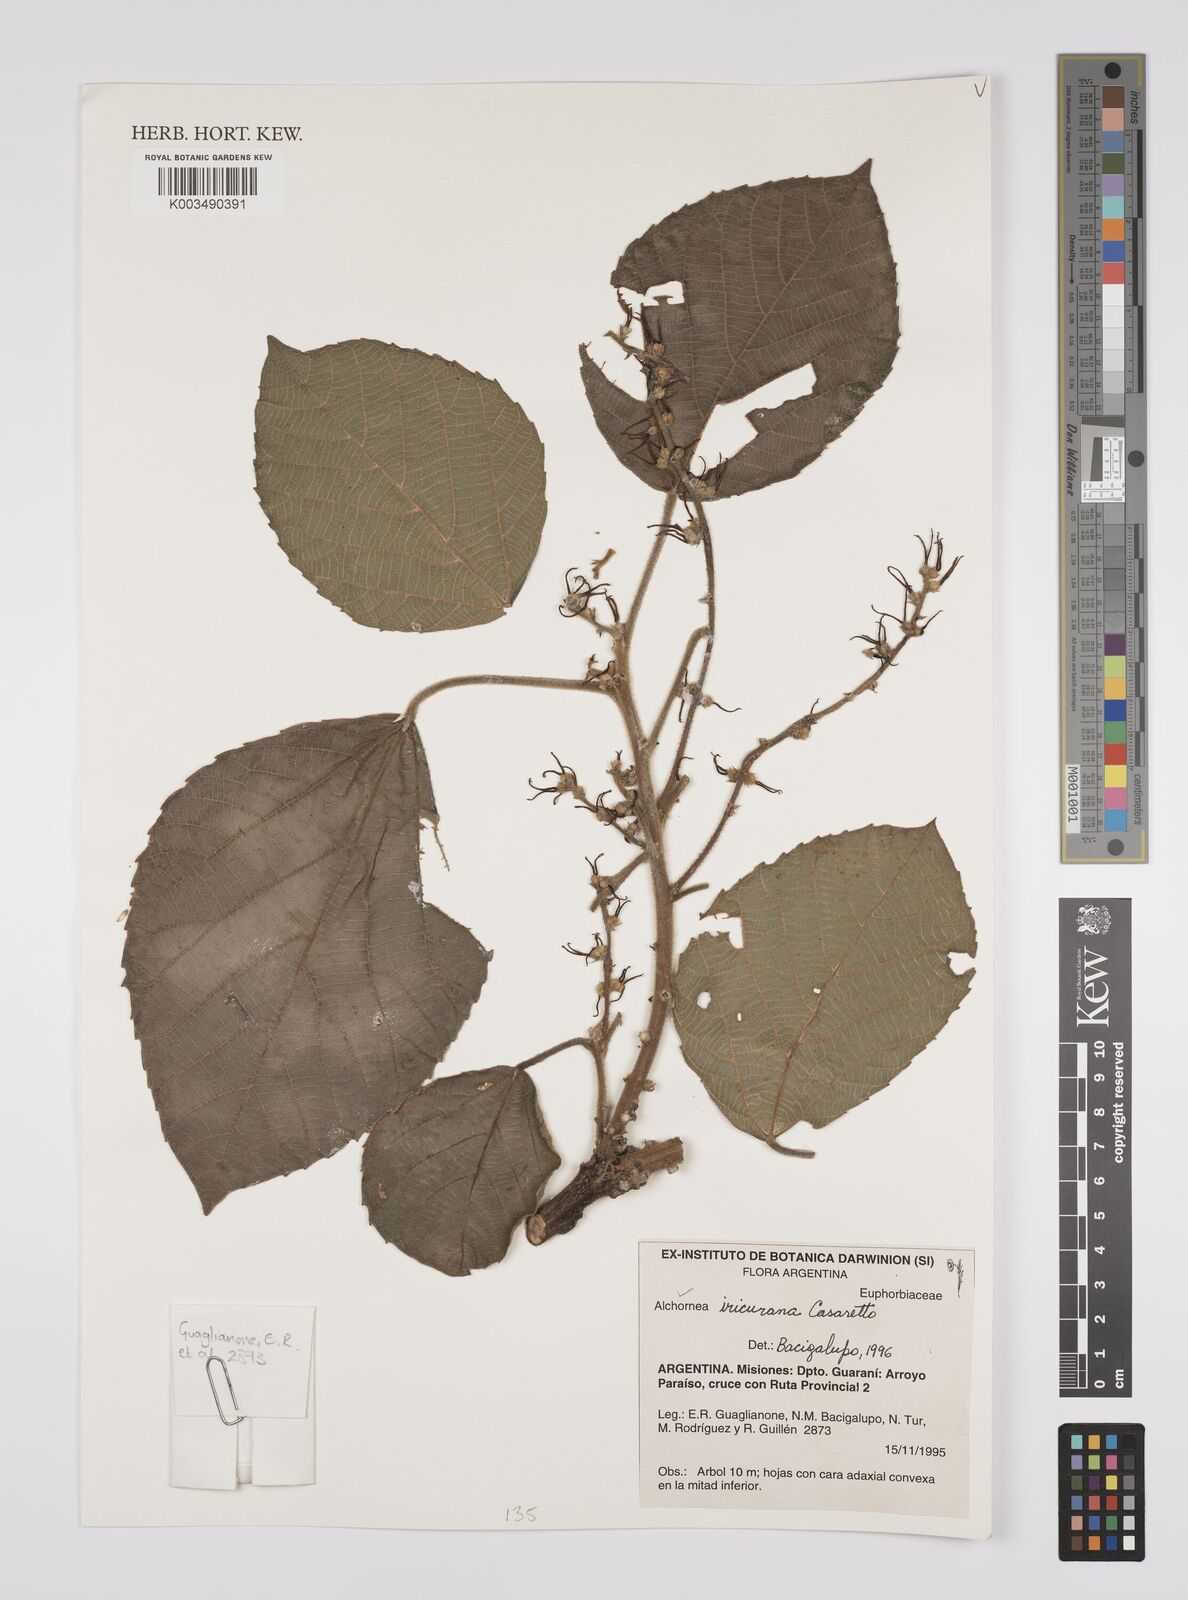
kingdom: Plantae
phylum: Tracheophyta
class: Magnoliopsida
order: Malpighiales
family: Euphorbiaceae
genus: Alchornea
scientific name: Alchornea glandulosa
